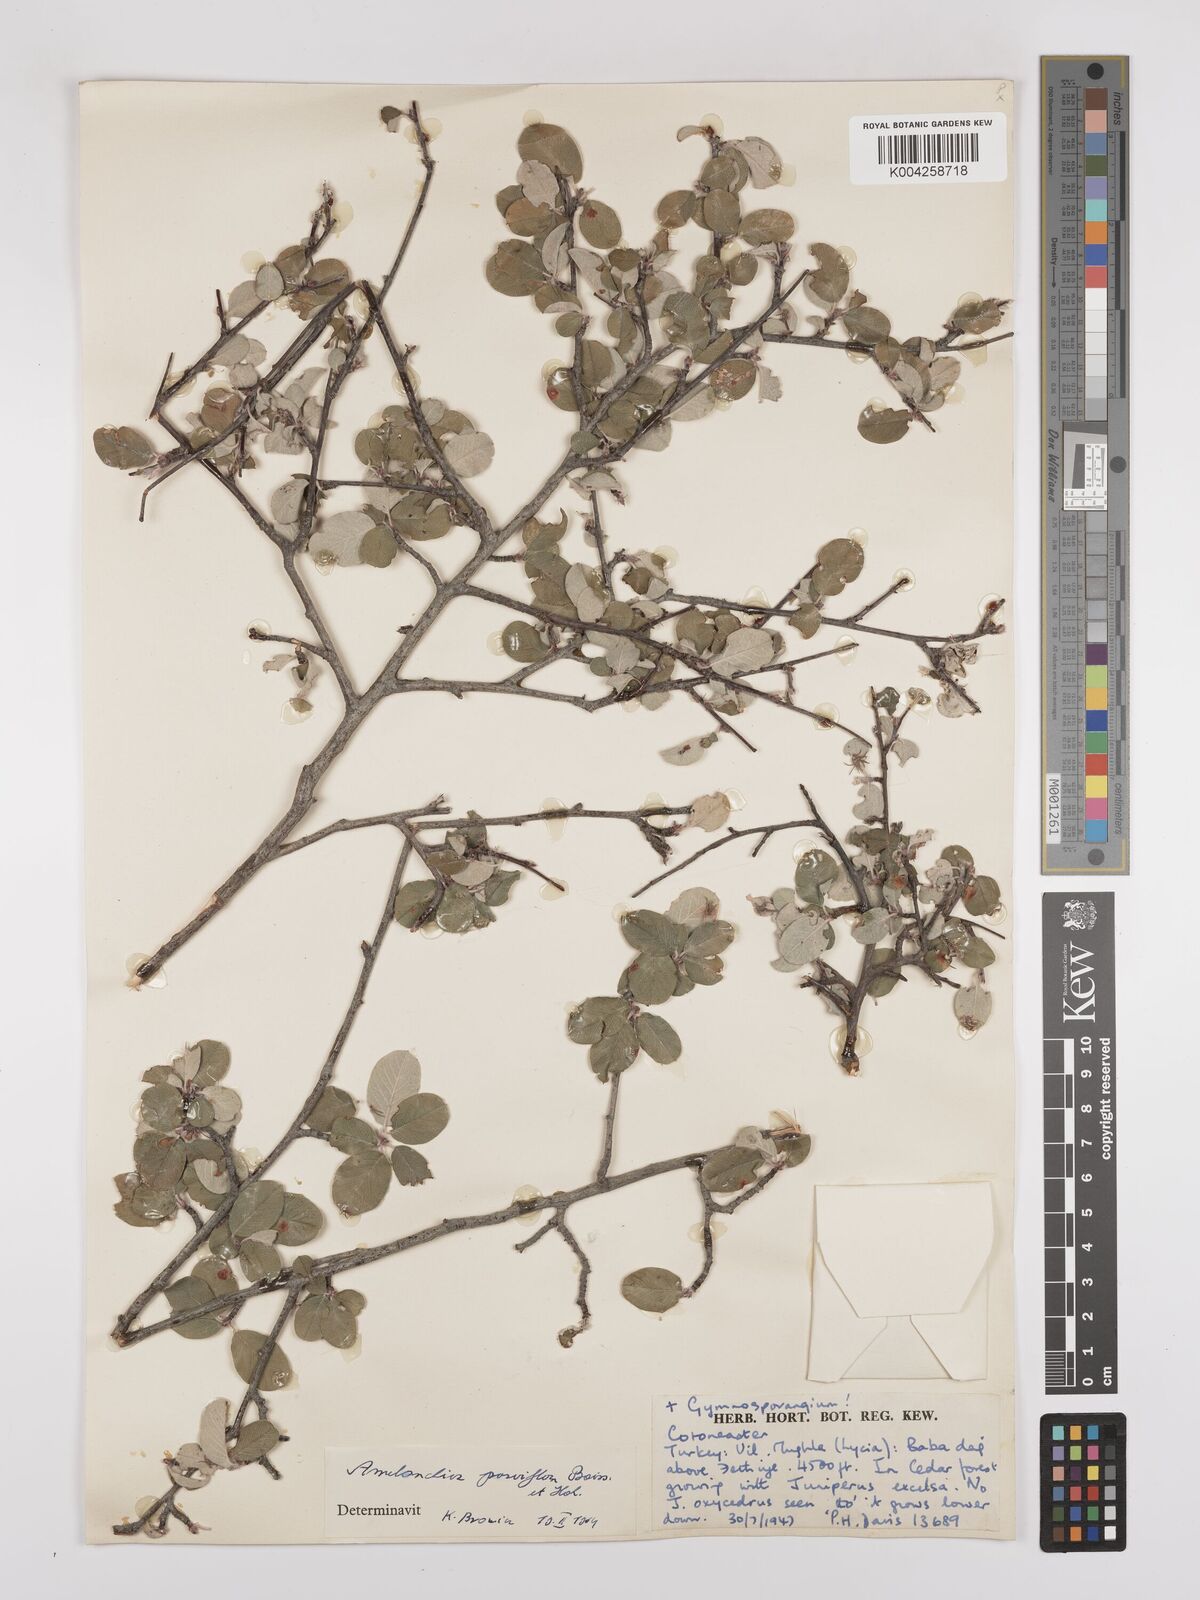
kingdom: Plantae
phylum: Tracheophyta
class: Magnoliopsida
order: Rosales
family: Rosaceae
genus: Amelanchier
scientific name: Amelanchier parviflora
